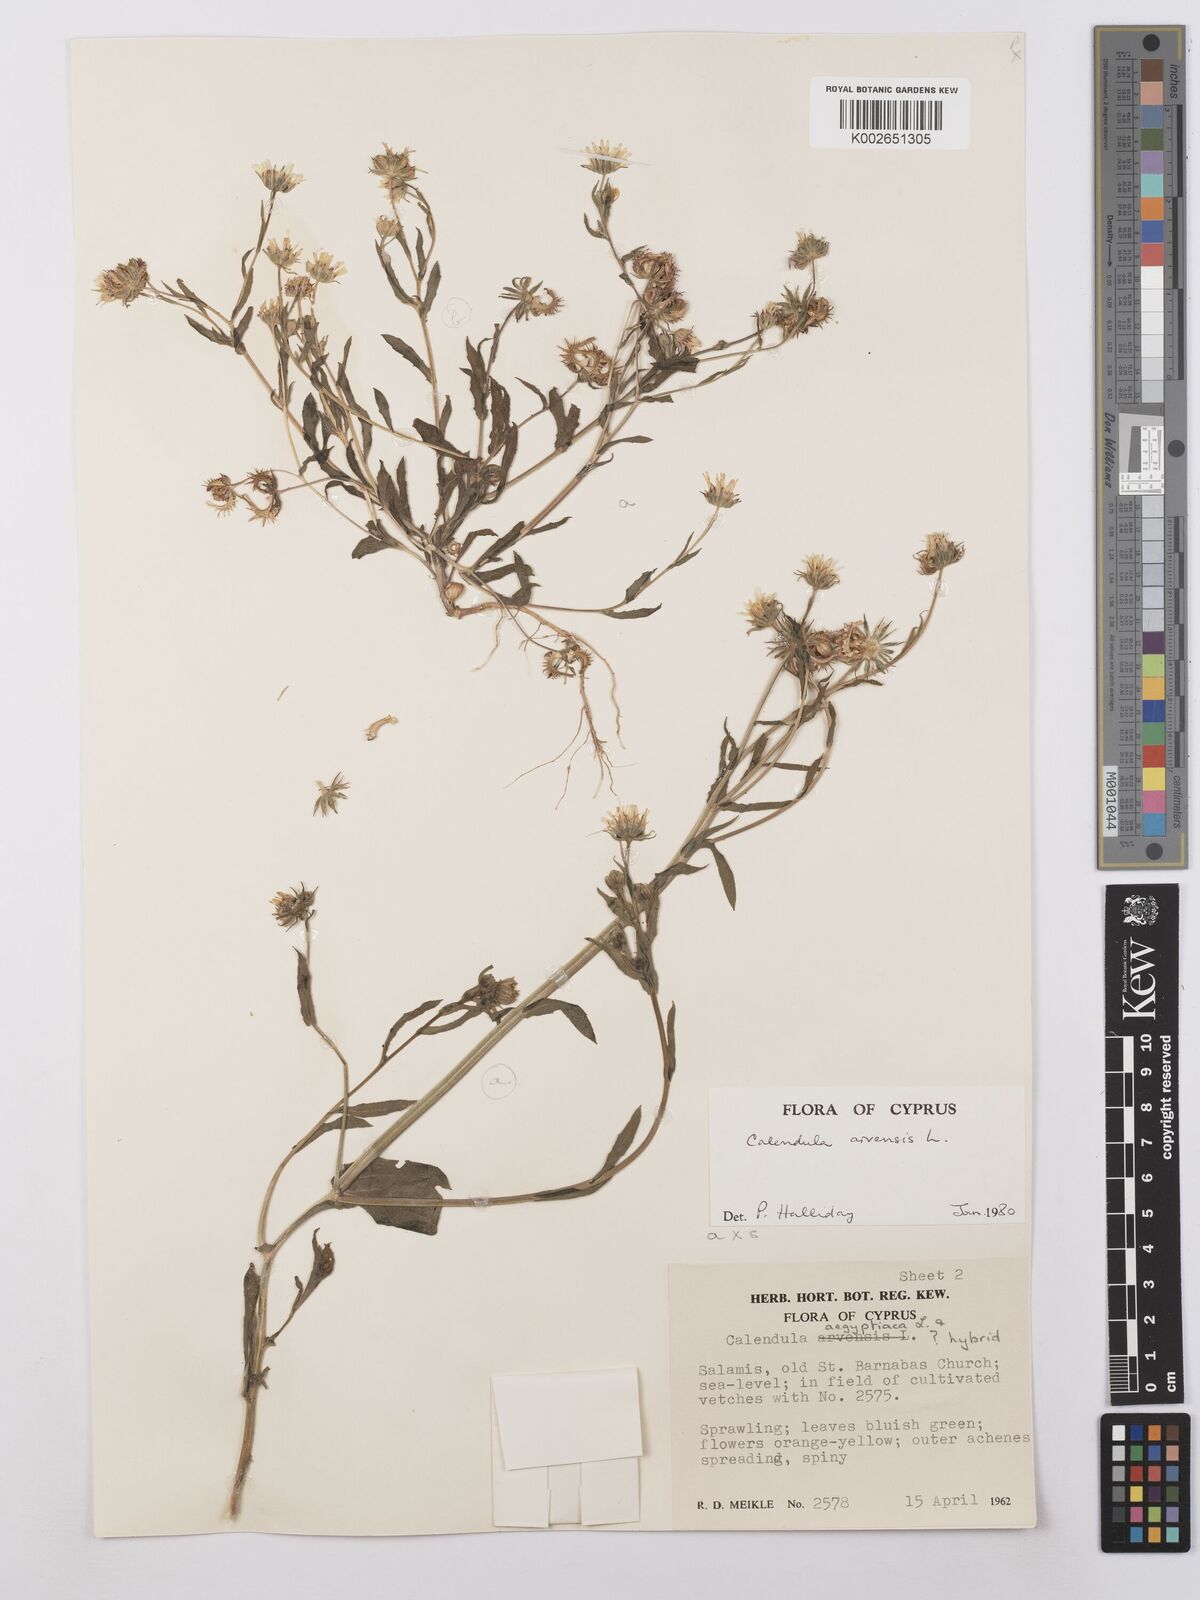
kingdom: Plantae
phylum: Tracheophyta
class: Magnoliopsida
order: Asterales
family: Asteraceae
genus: Calendula
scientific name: Calendula arvensis
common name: Field marigold
